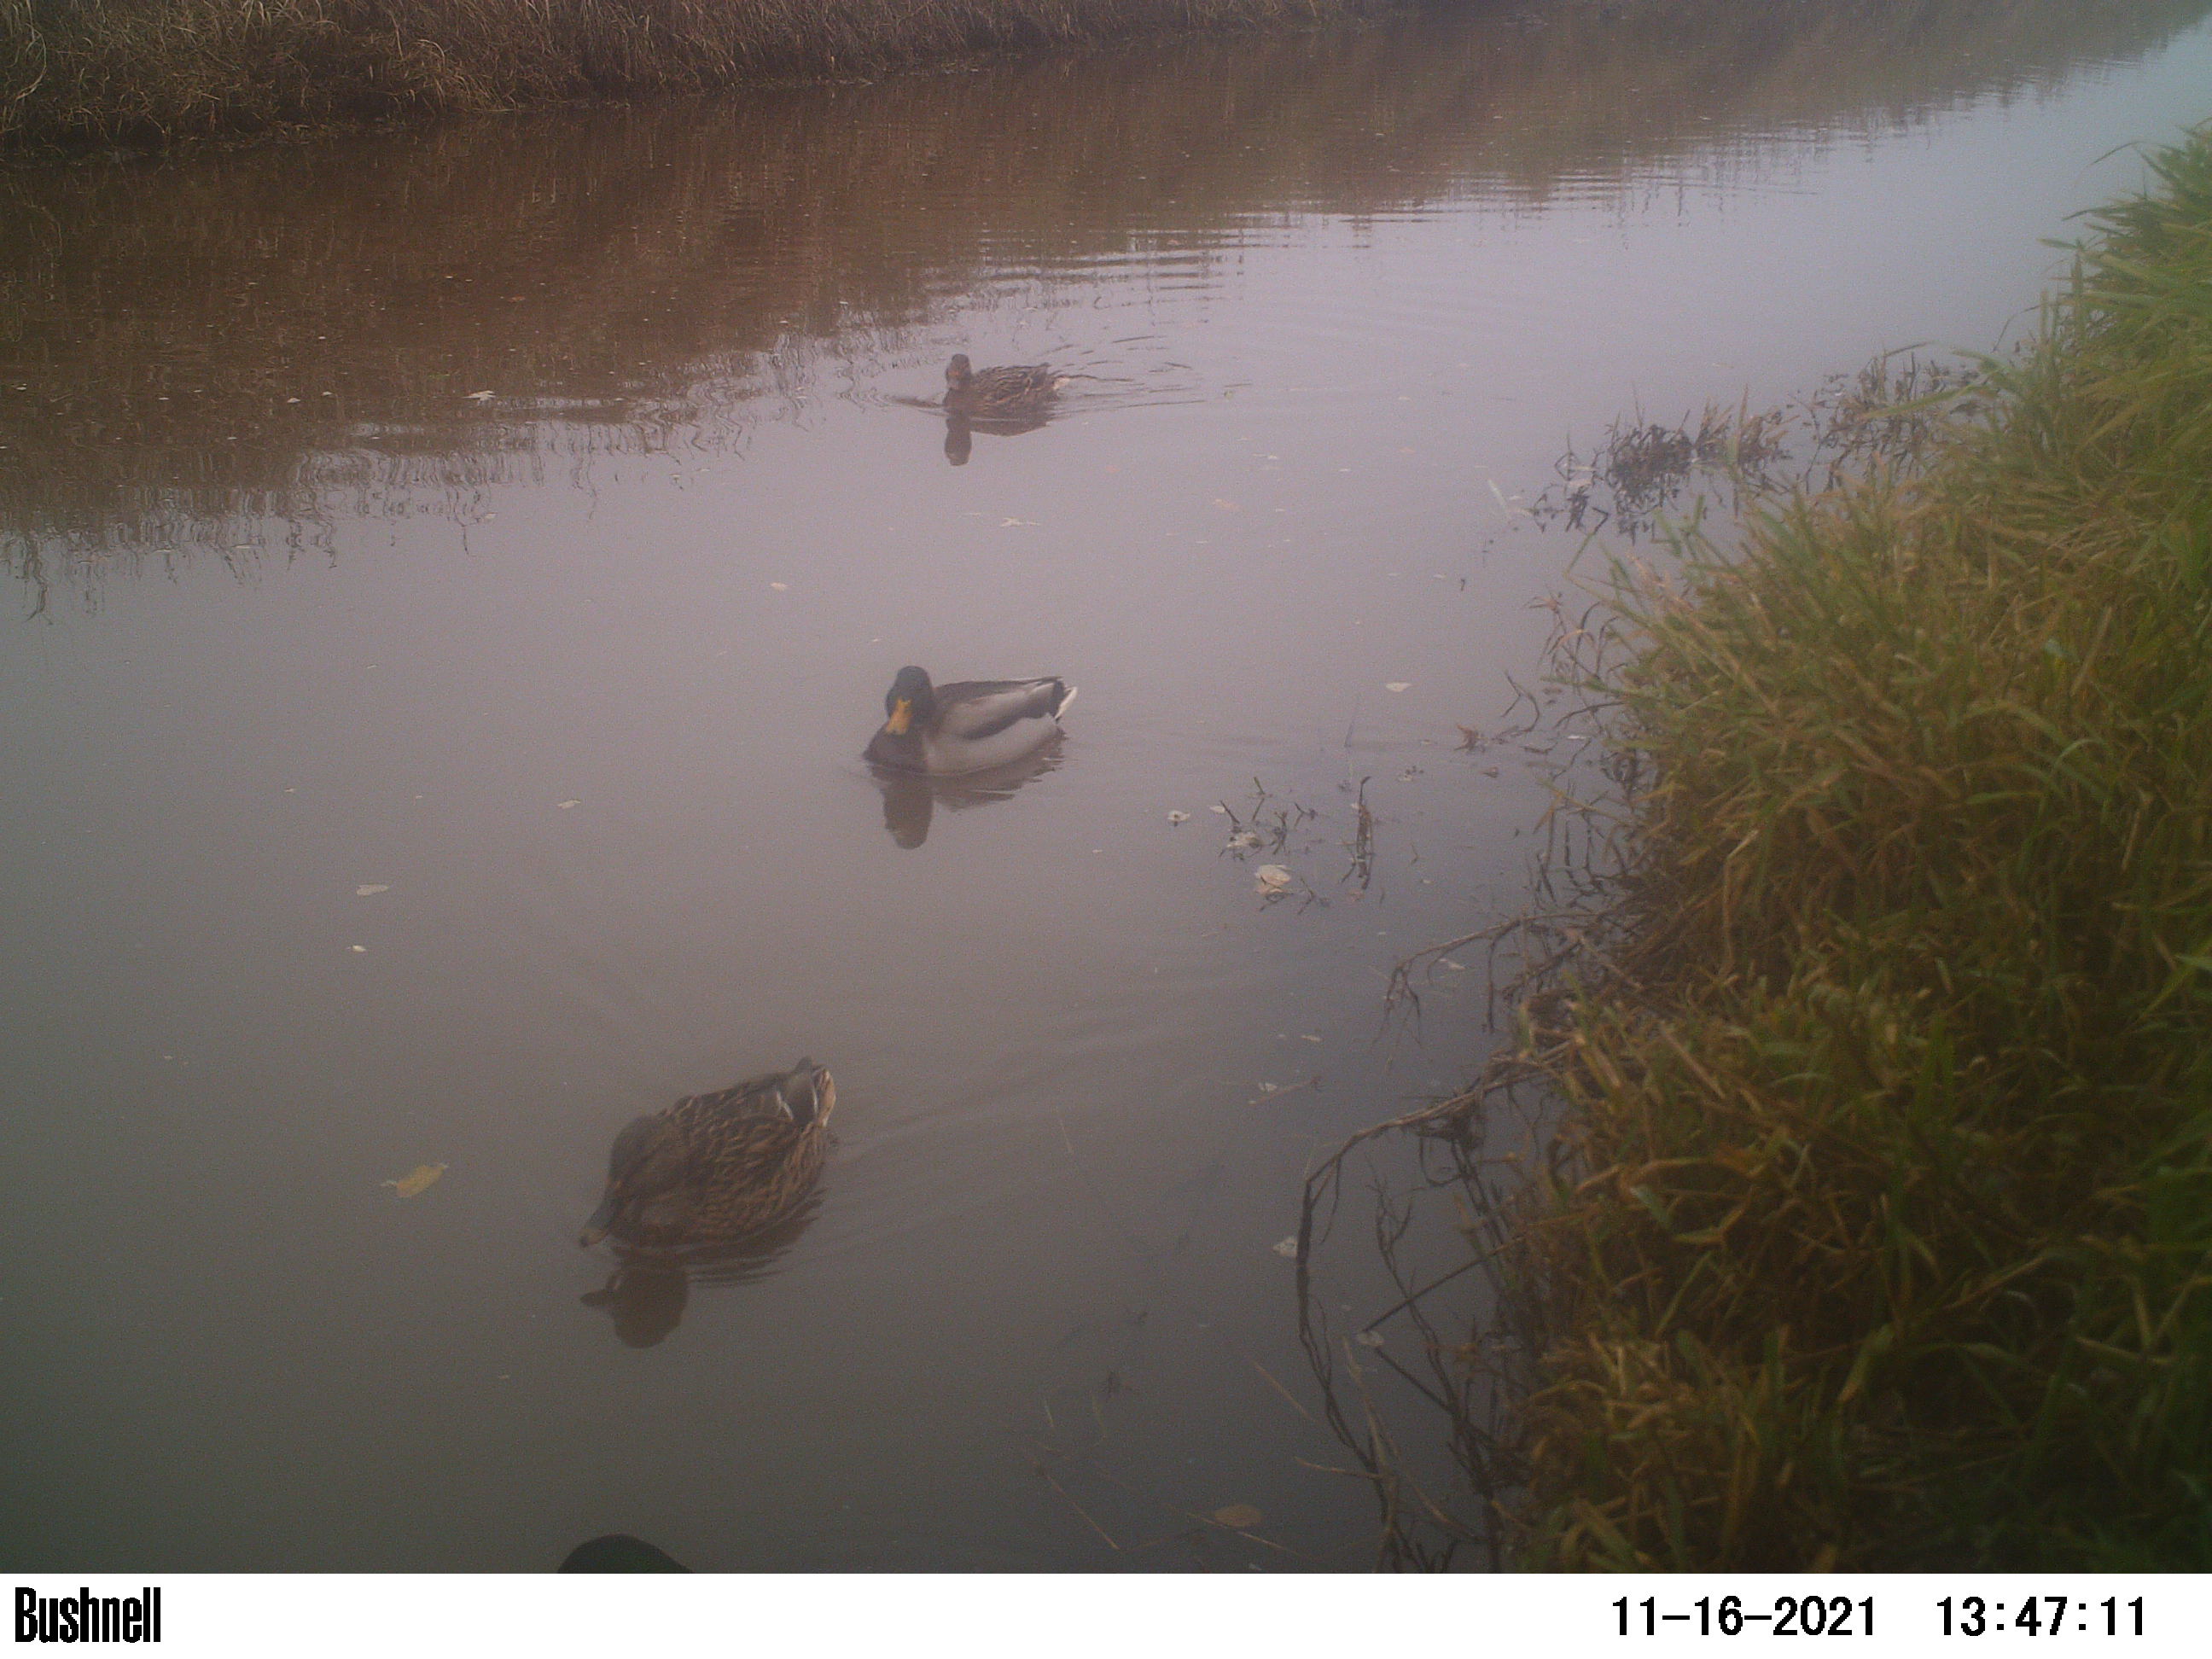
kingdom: Animalia
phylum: Chordata
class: Aves
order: Anseriformes
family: Anatidae
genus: Anas
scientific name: Anas
